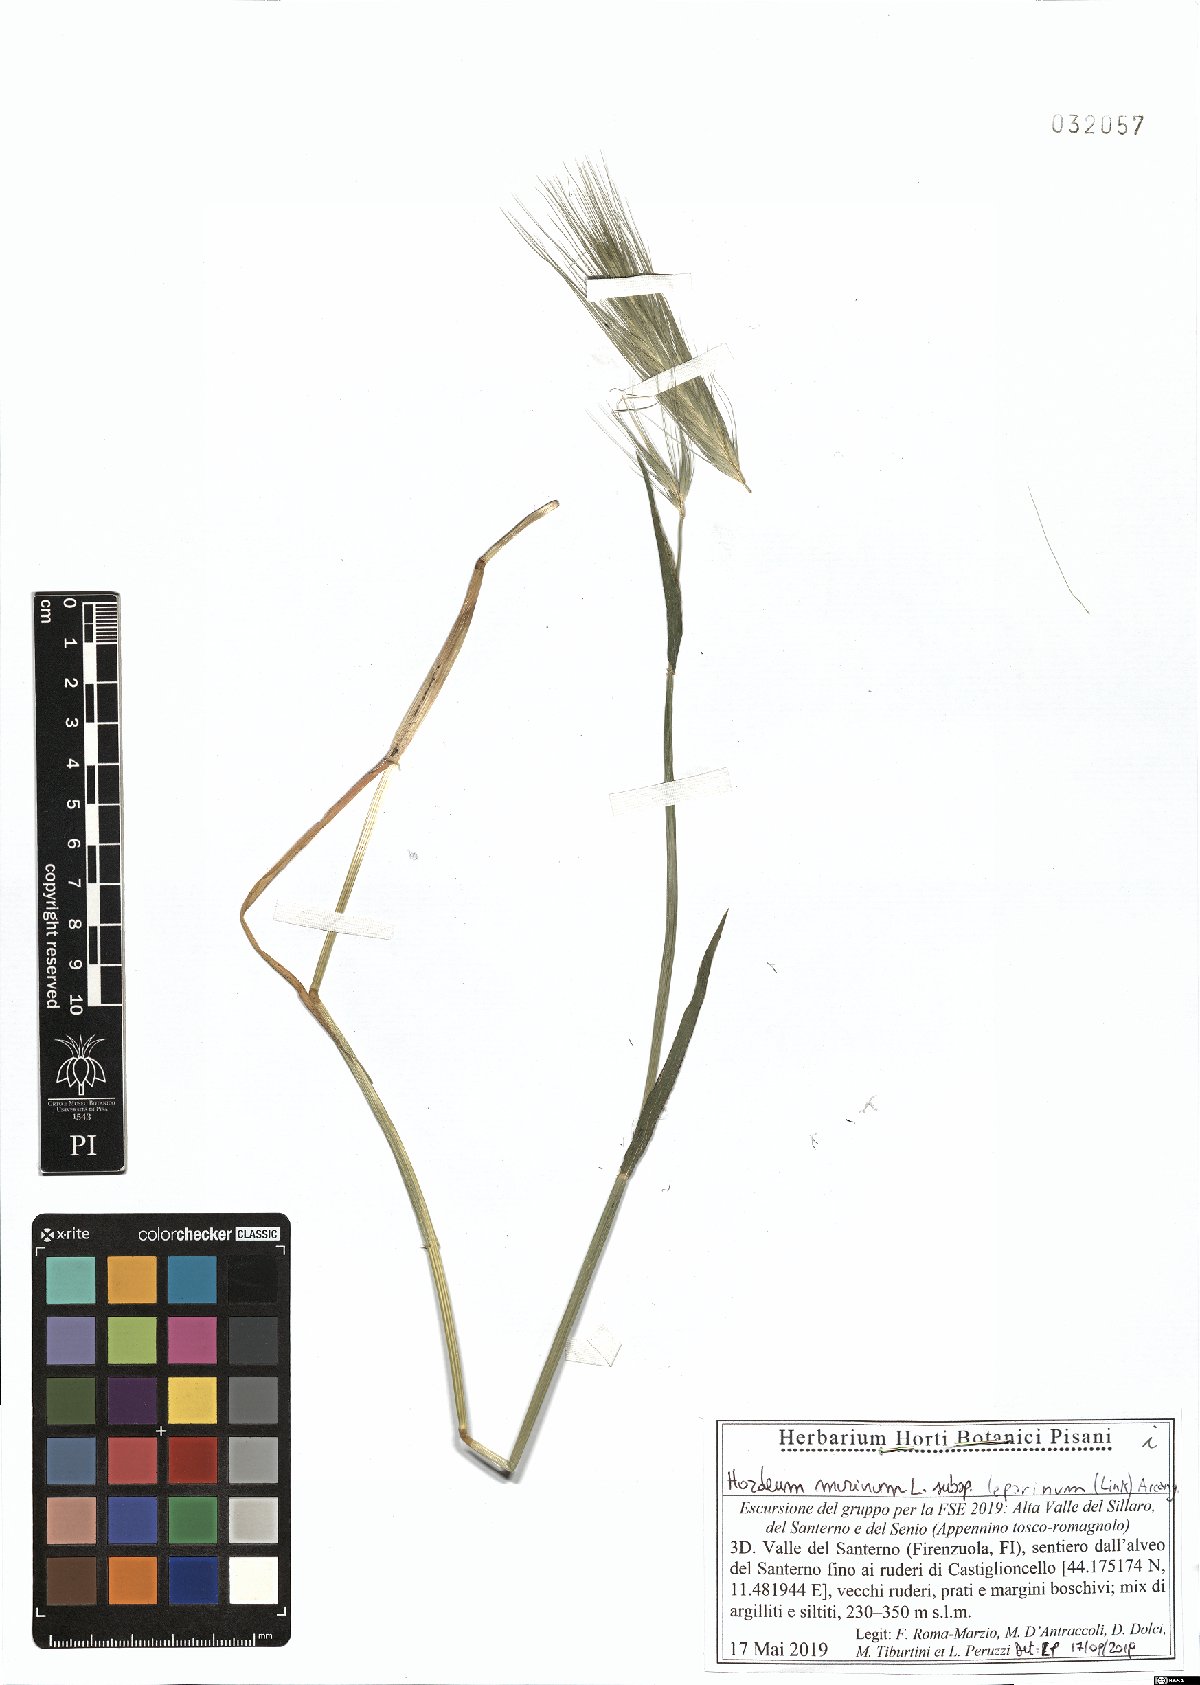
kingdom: Plantae
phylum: Tracheophyta
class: Liliopsida
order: Poales
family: Poaceae
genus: Hordeum
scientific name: Hordeum murinum
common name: Wall barley
